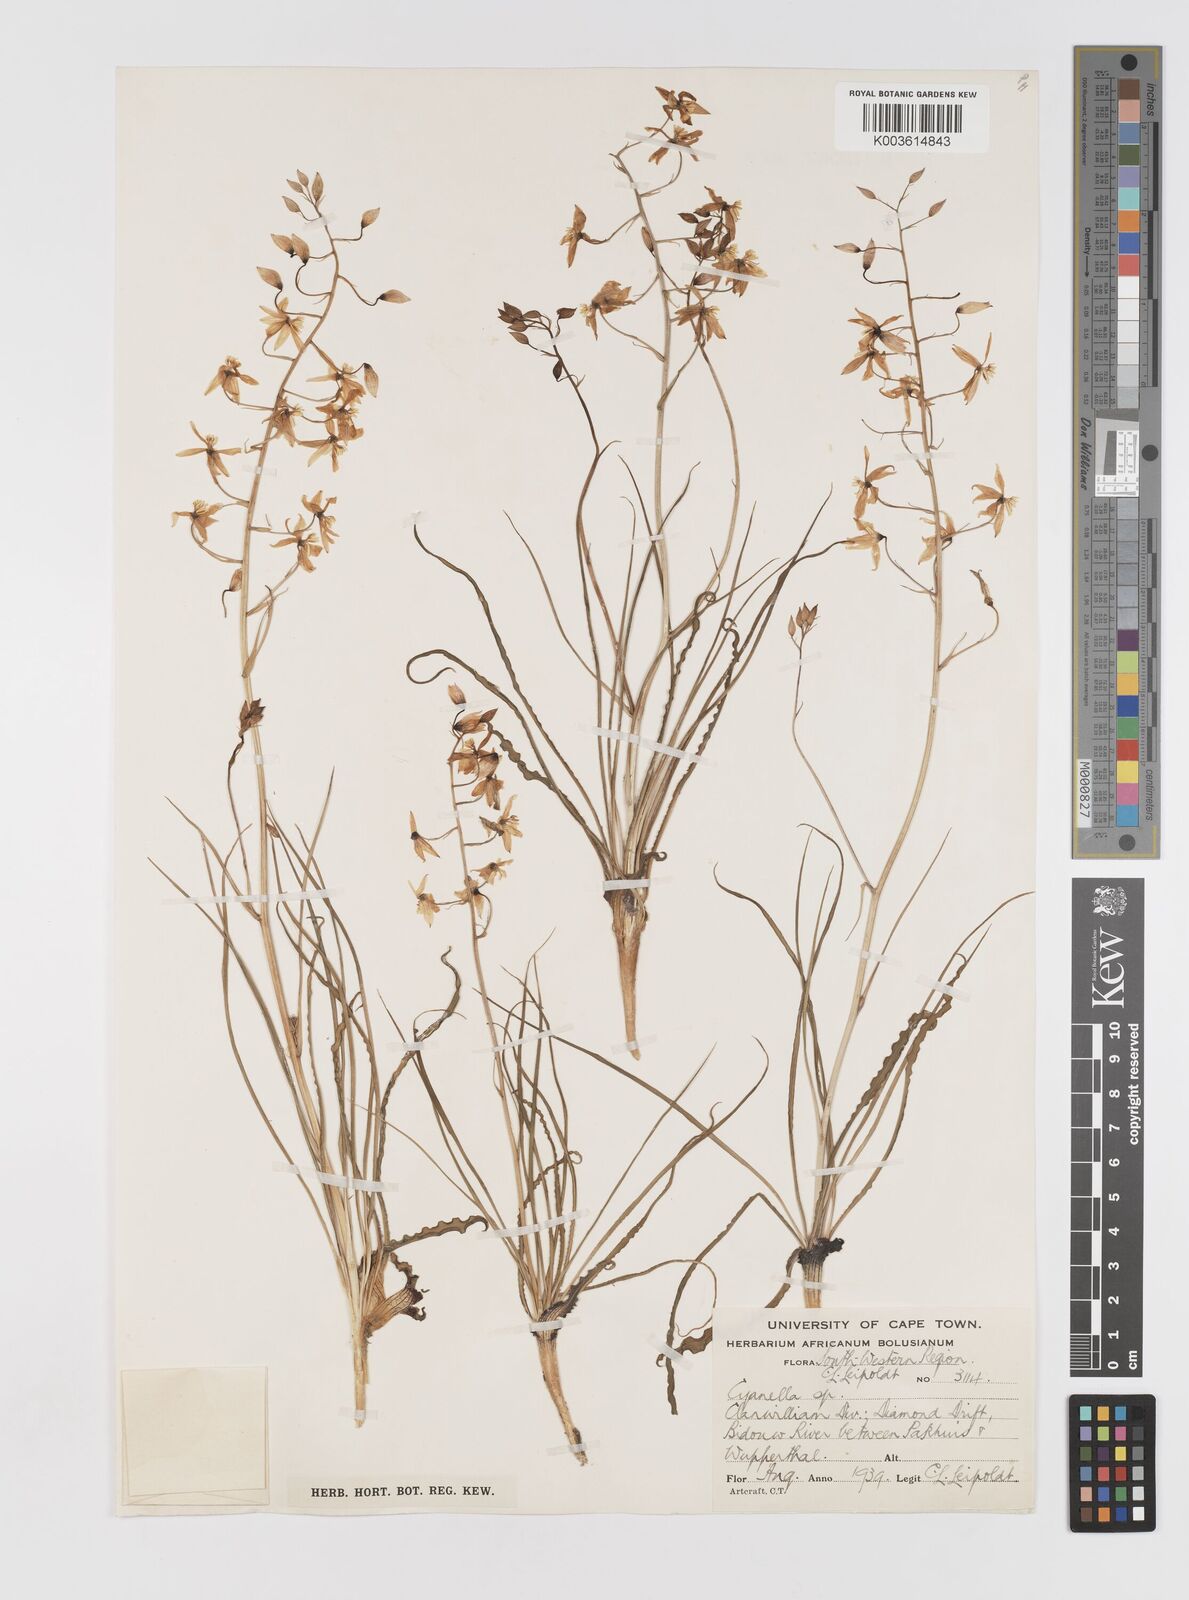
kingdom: Plantae
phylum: Tracheophyta
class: Liliopsida
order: Asparagales
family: Tecophilaeaceae
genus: Cyanella
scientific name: Cyanella
